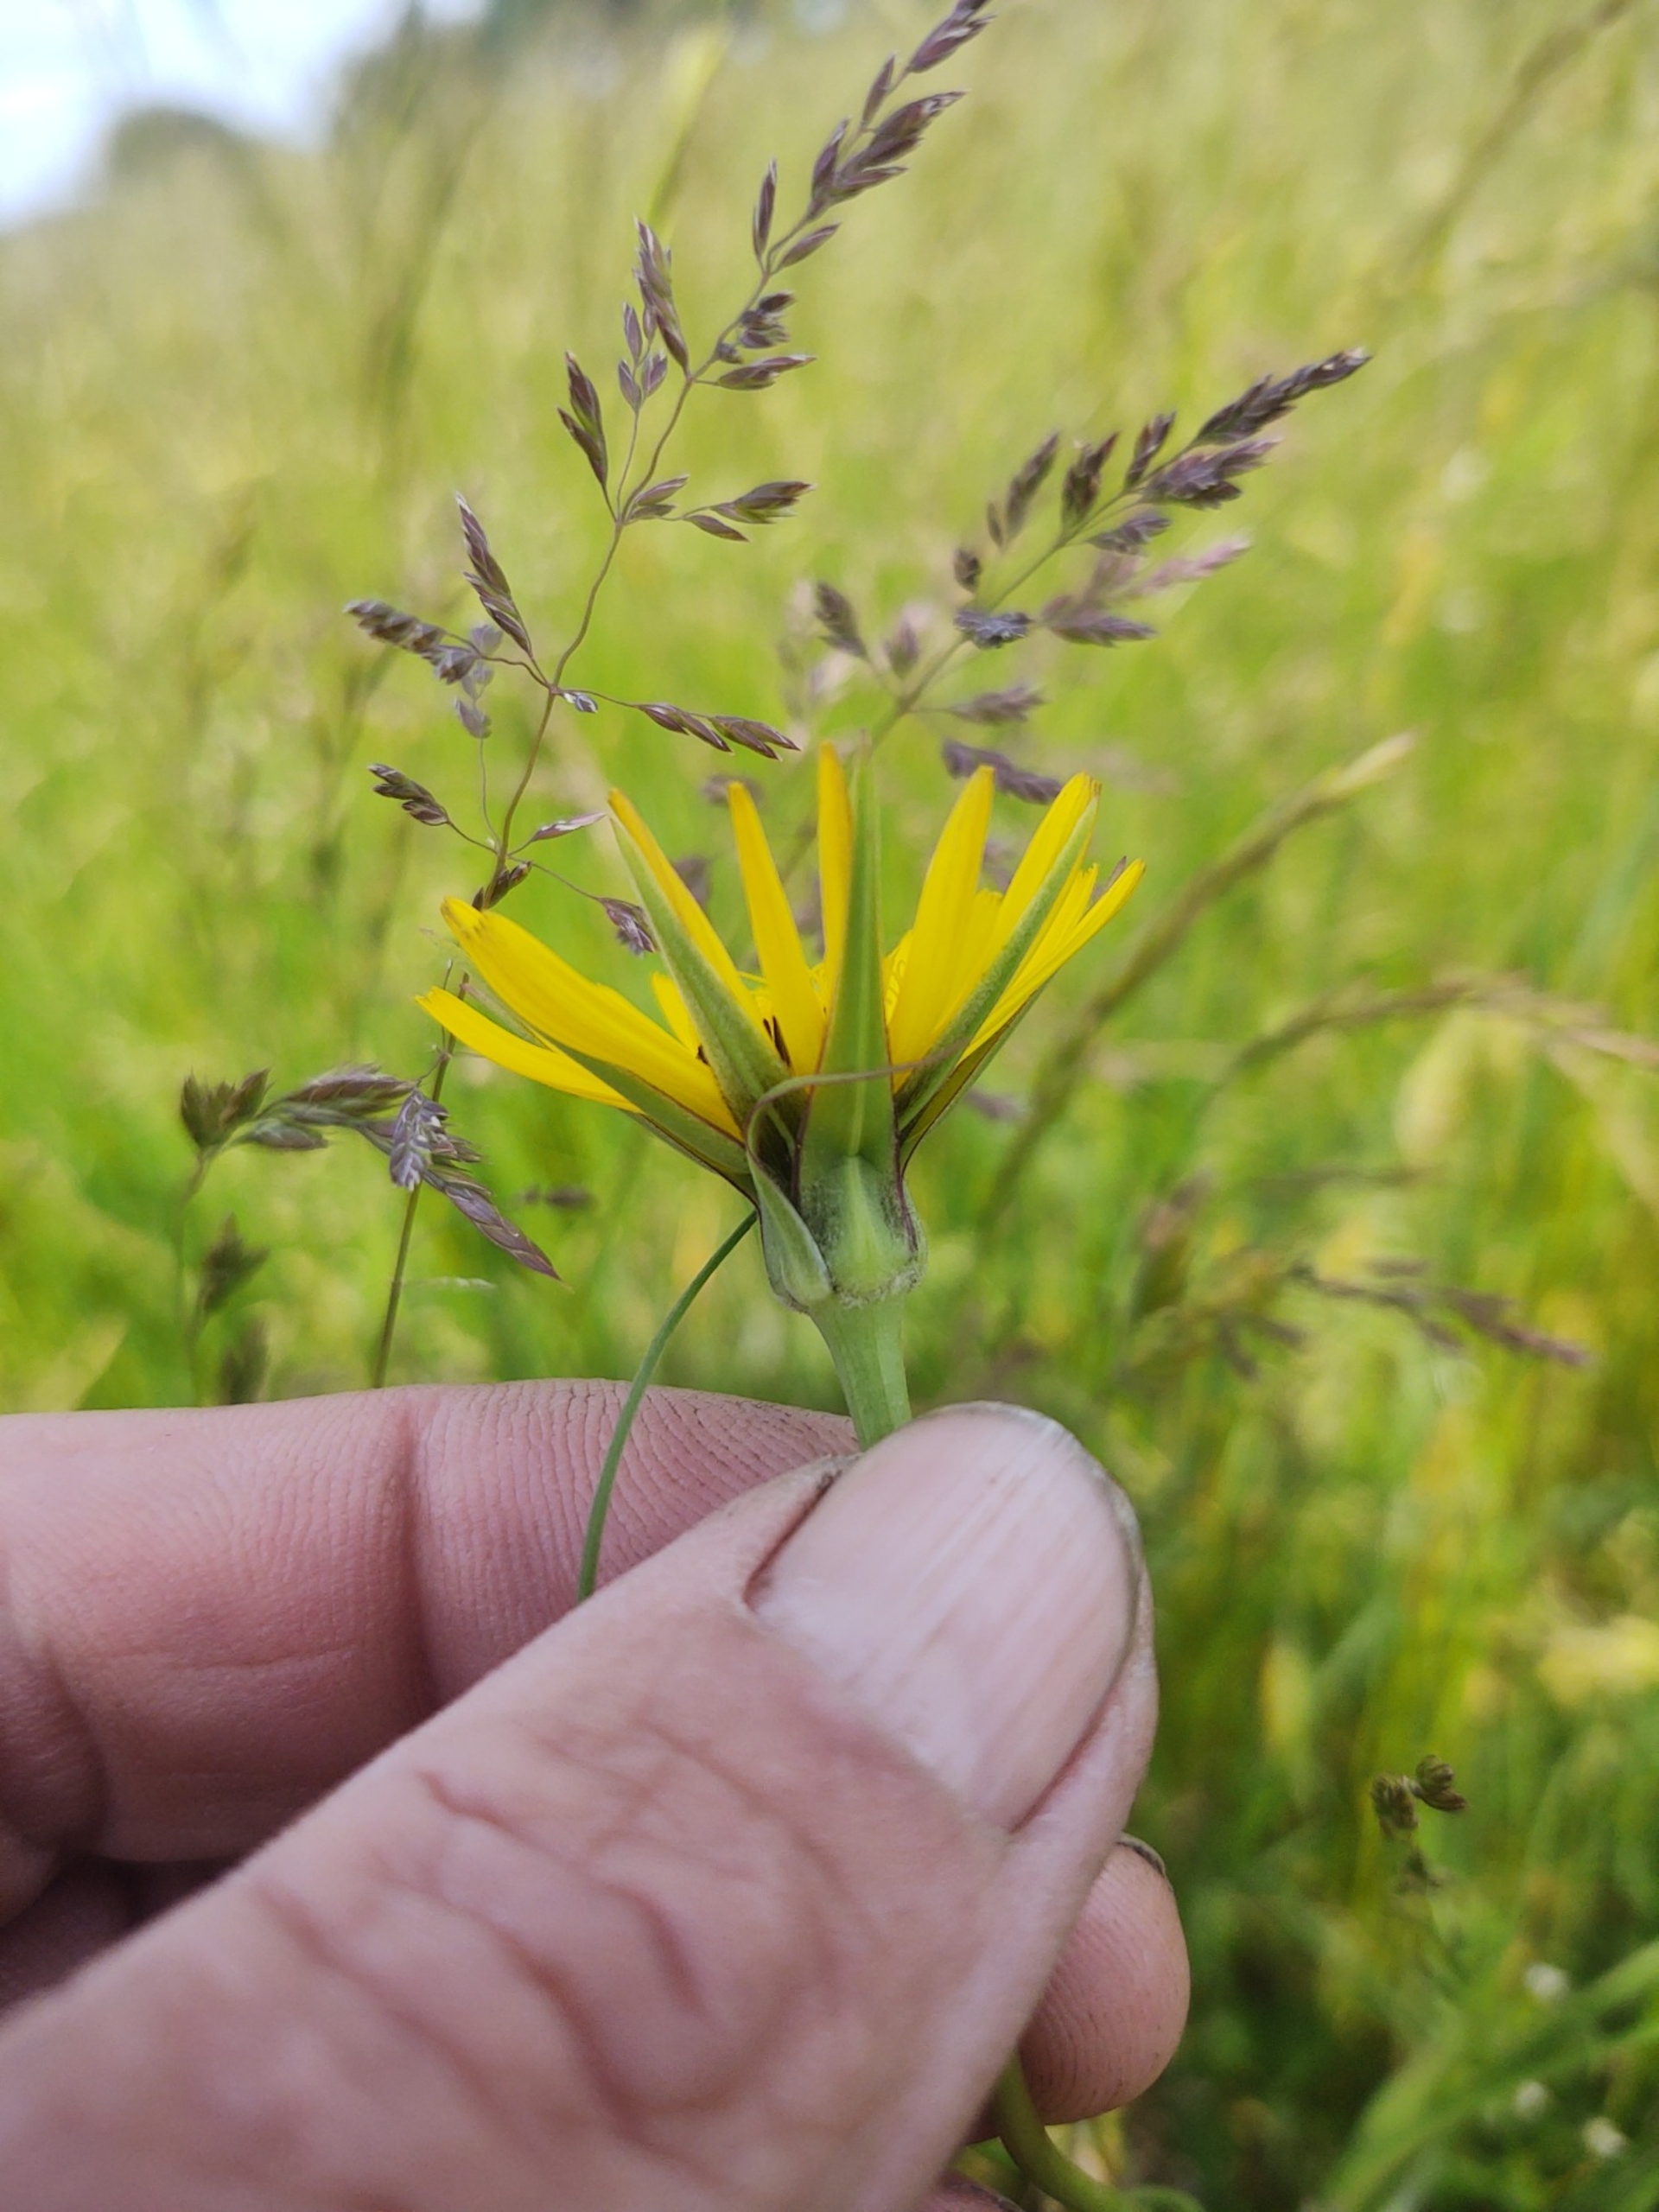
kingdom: Plantae
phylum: Tracheophyta
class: Magnoliopsida
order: Asterales
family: Asteraceae
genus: Tragopogon
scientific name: Tragopogon pratensis
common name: Eng-gedeskæg
